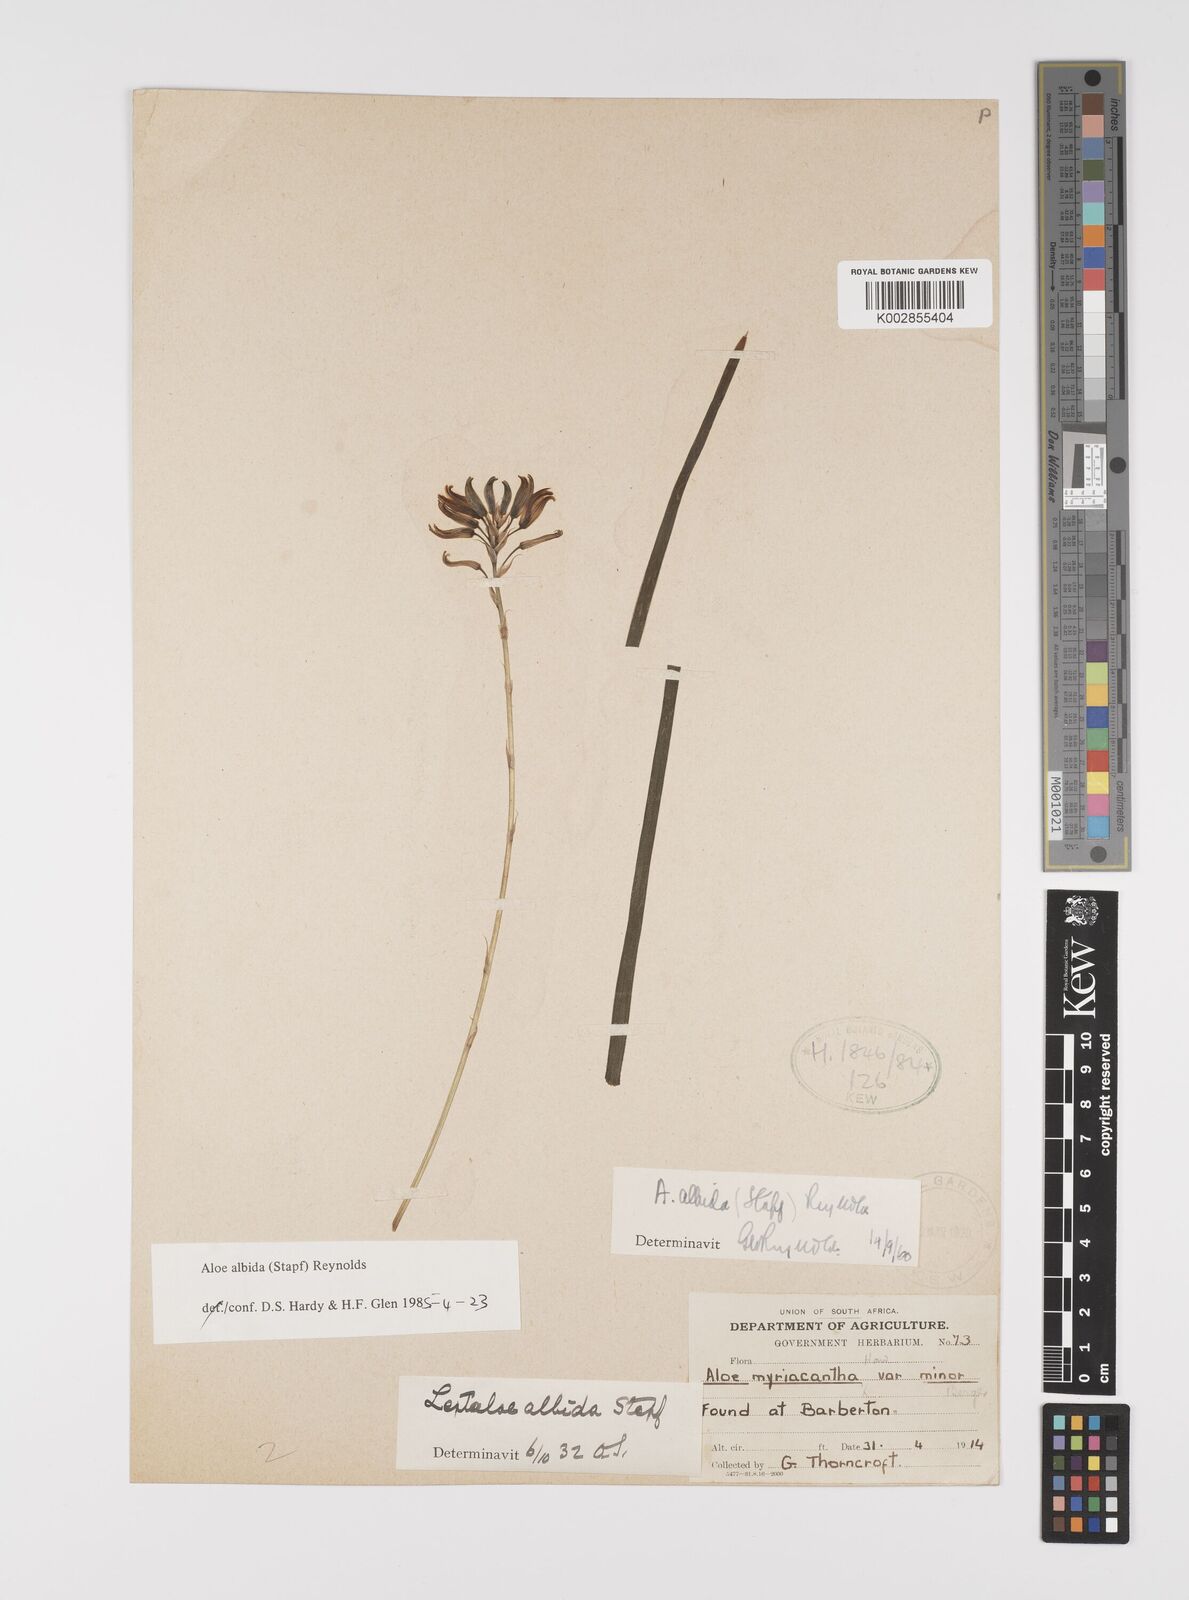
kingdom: Plantae
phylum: Tracheophyta
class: Liliopsida
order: Asparagales
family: Asphodelaceae
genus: Aloe
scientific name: Aloe albida
